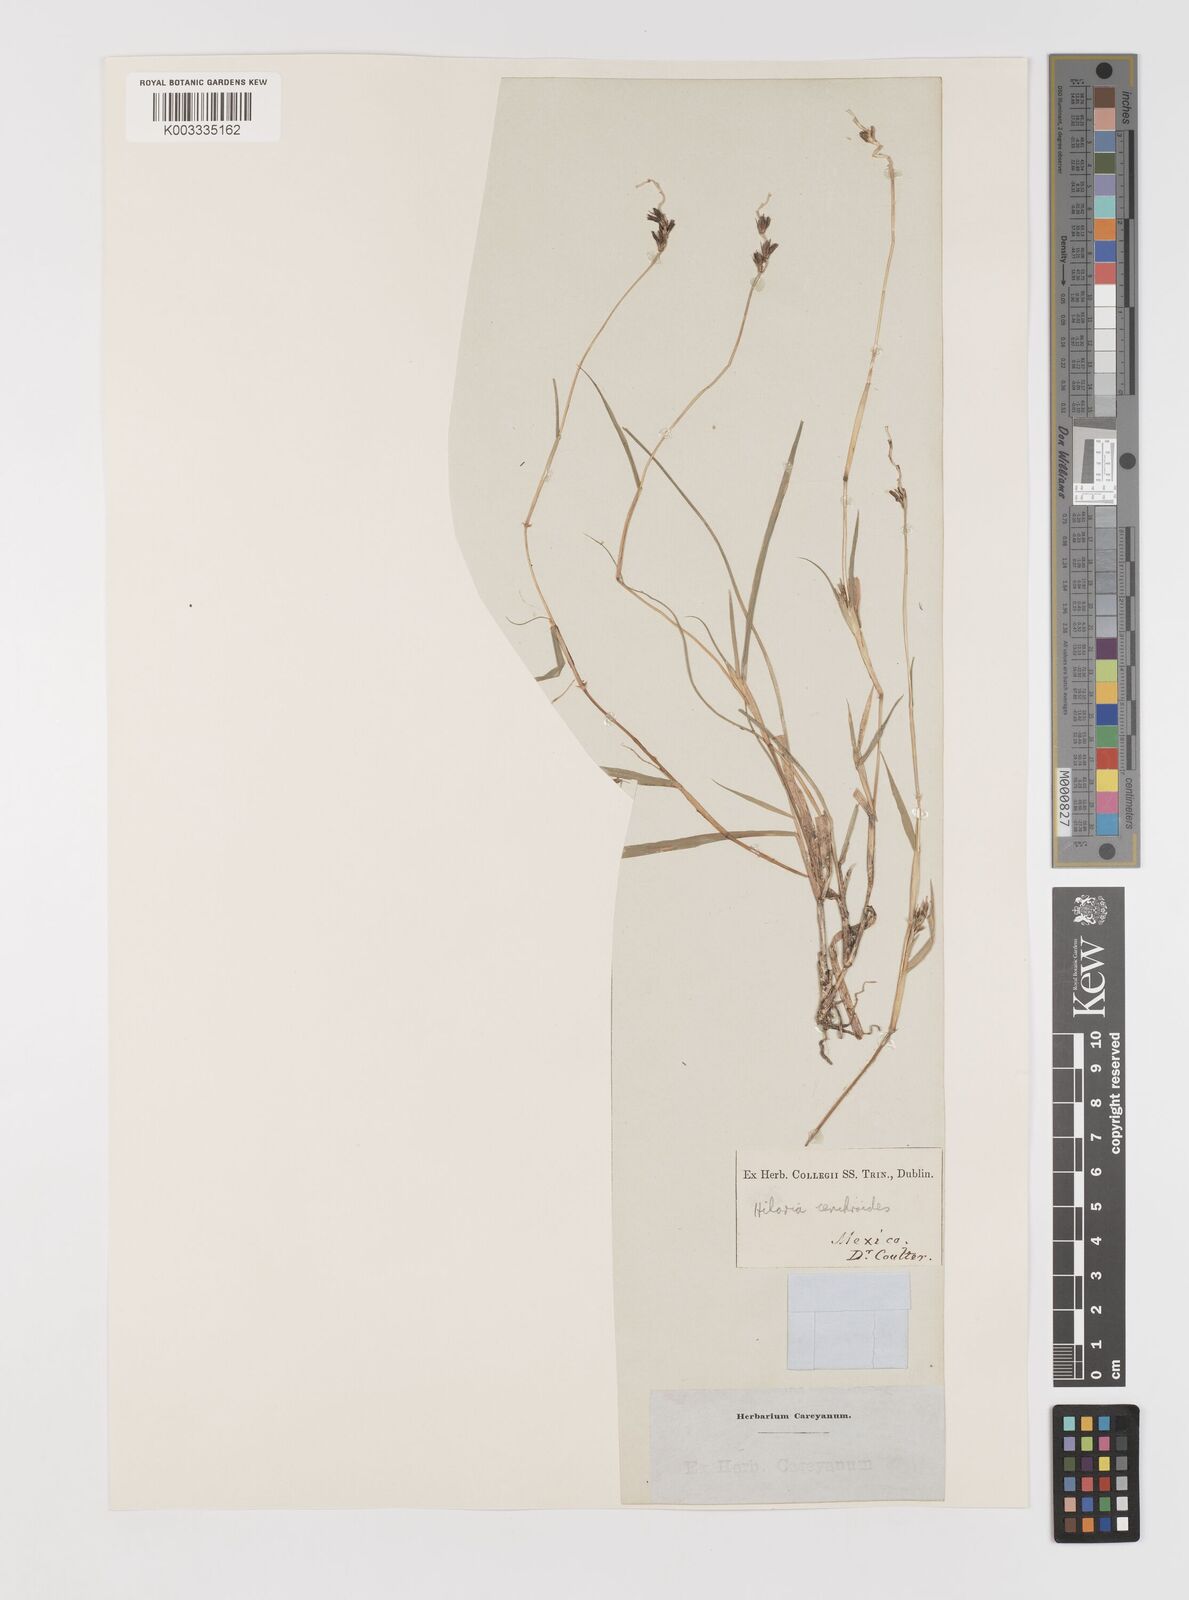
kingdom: Plantae
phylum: Tracheophyta
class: Liliopsida
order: Poales
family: Poaceae
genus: Hilaria
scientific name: Hilaria cenchroides
